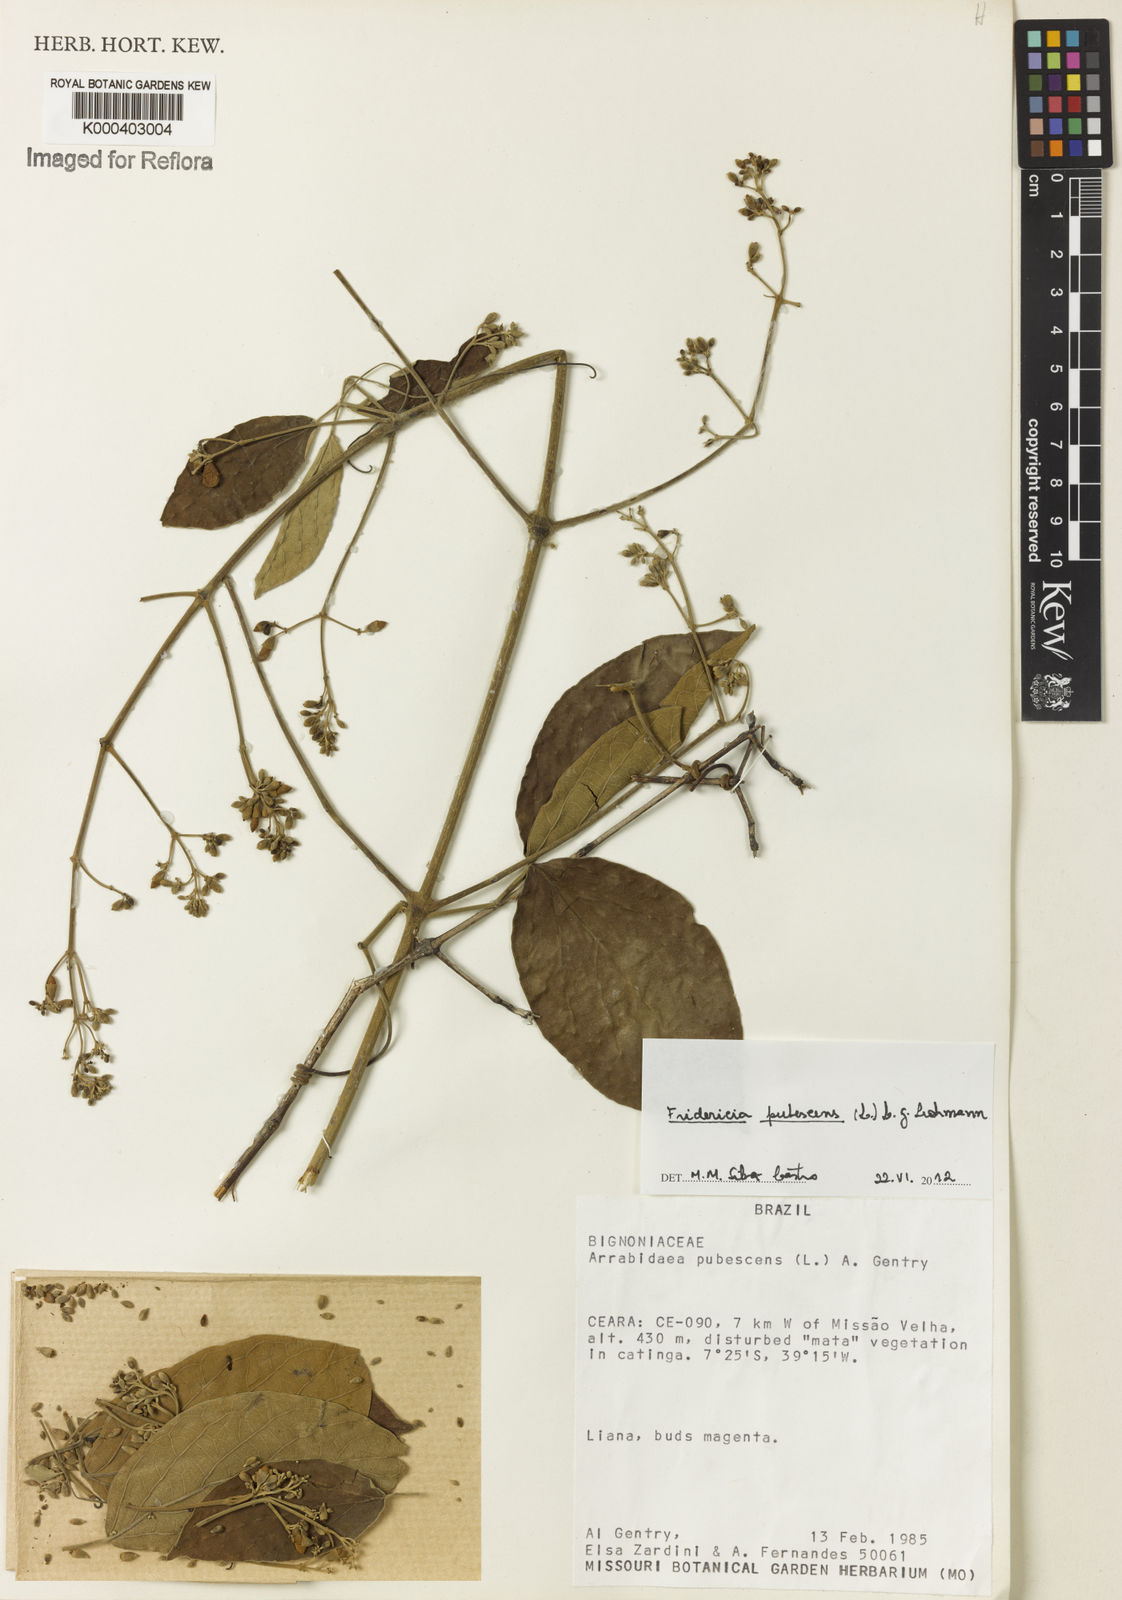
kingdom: Plantae
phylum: Tracheophyta
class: Magnoliopsida
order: Lamiales
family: Bignoniaceae
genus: Fridericia
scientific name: Fridericia pubescens
